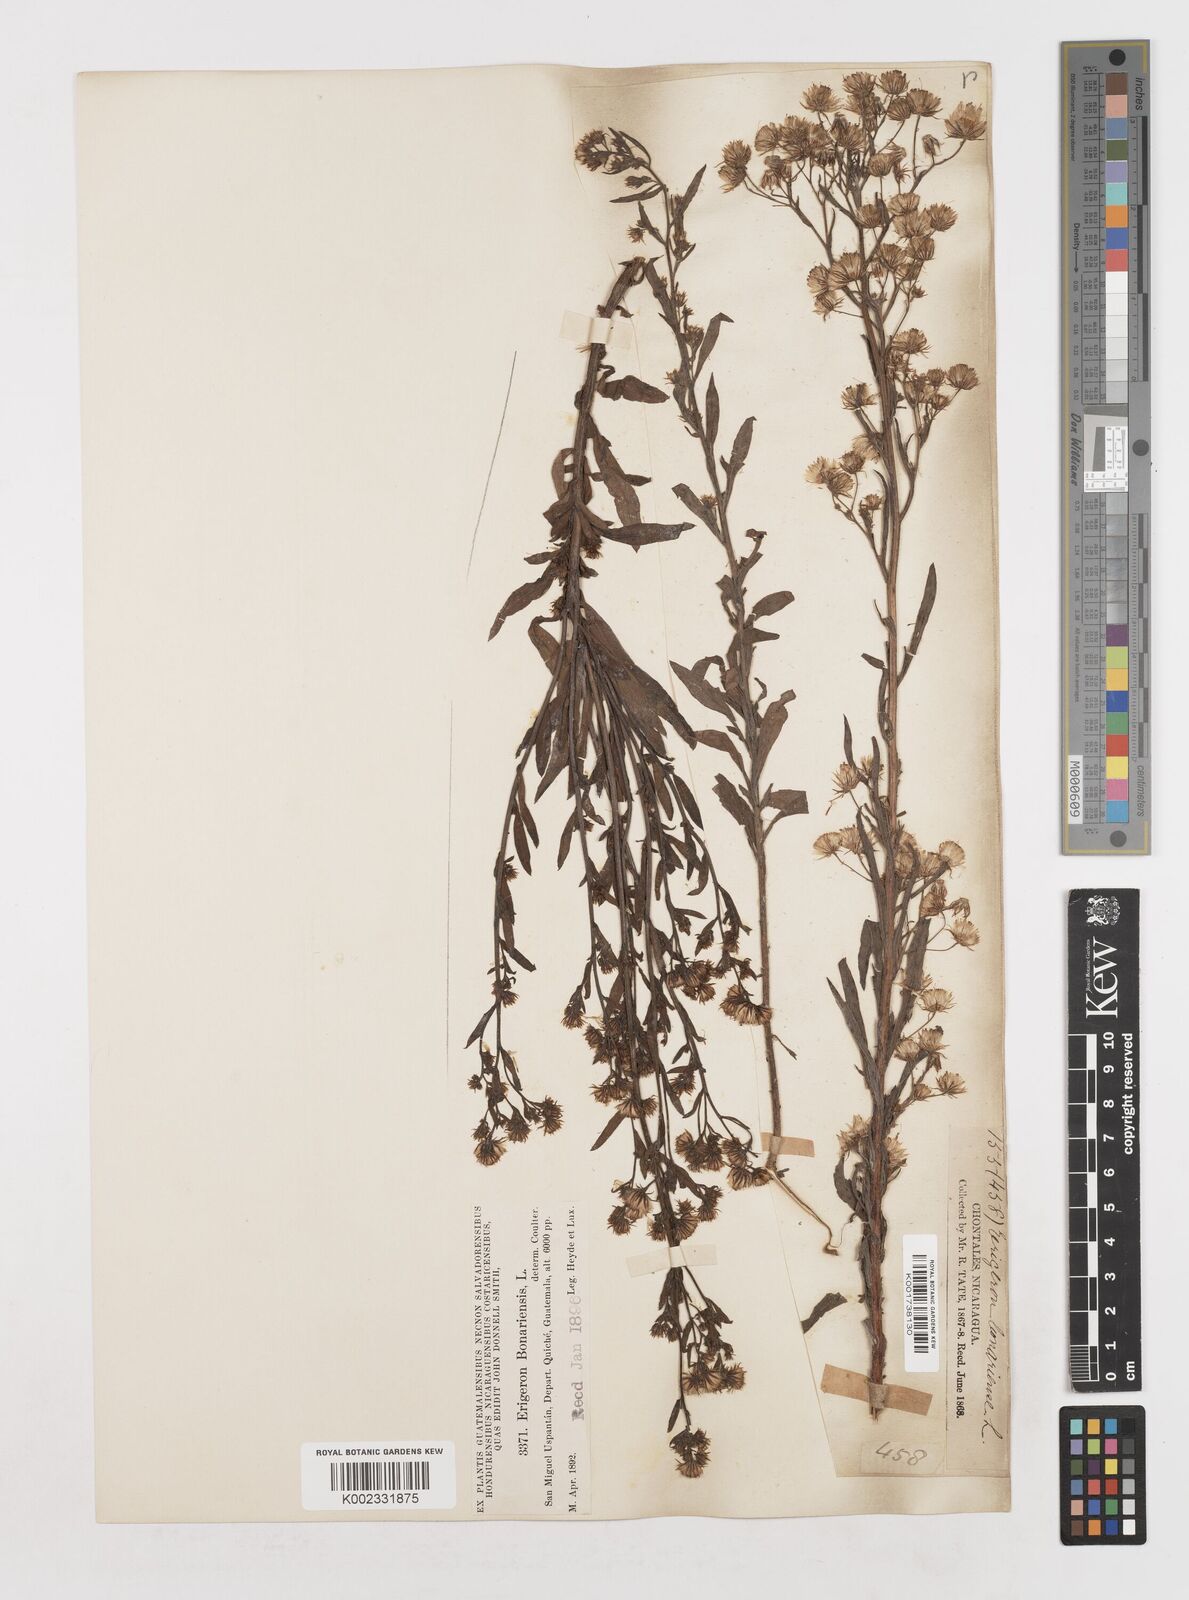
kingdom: Plantae
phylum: Tracheophyta
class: Magnoliopsida
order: Asterales
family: Asteraceae
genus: Erigeron
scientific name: Erigeron
